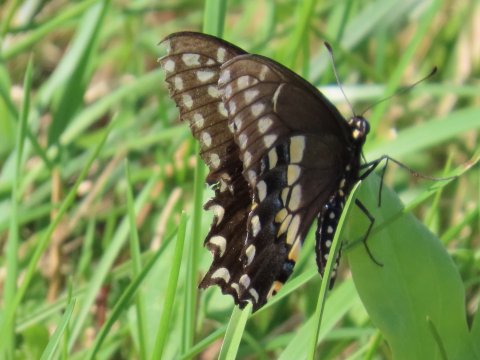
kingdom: Animalia
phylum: Arthropoda
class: Insecta
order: Lepidoptera
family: Papilionidae
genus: Papilio
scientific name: Papilio polyxenes
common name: Black Swallowtail
